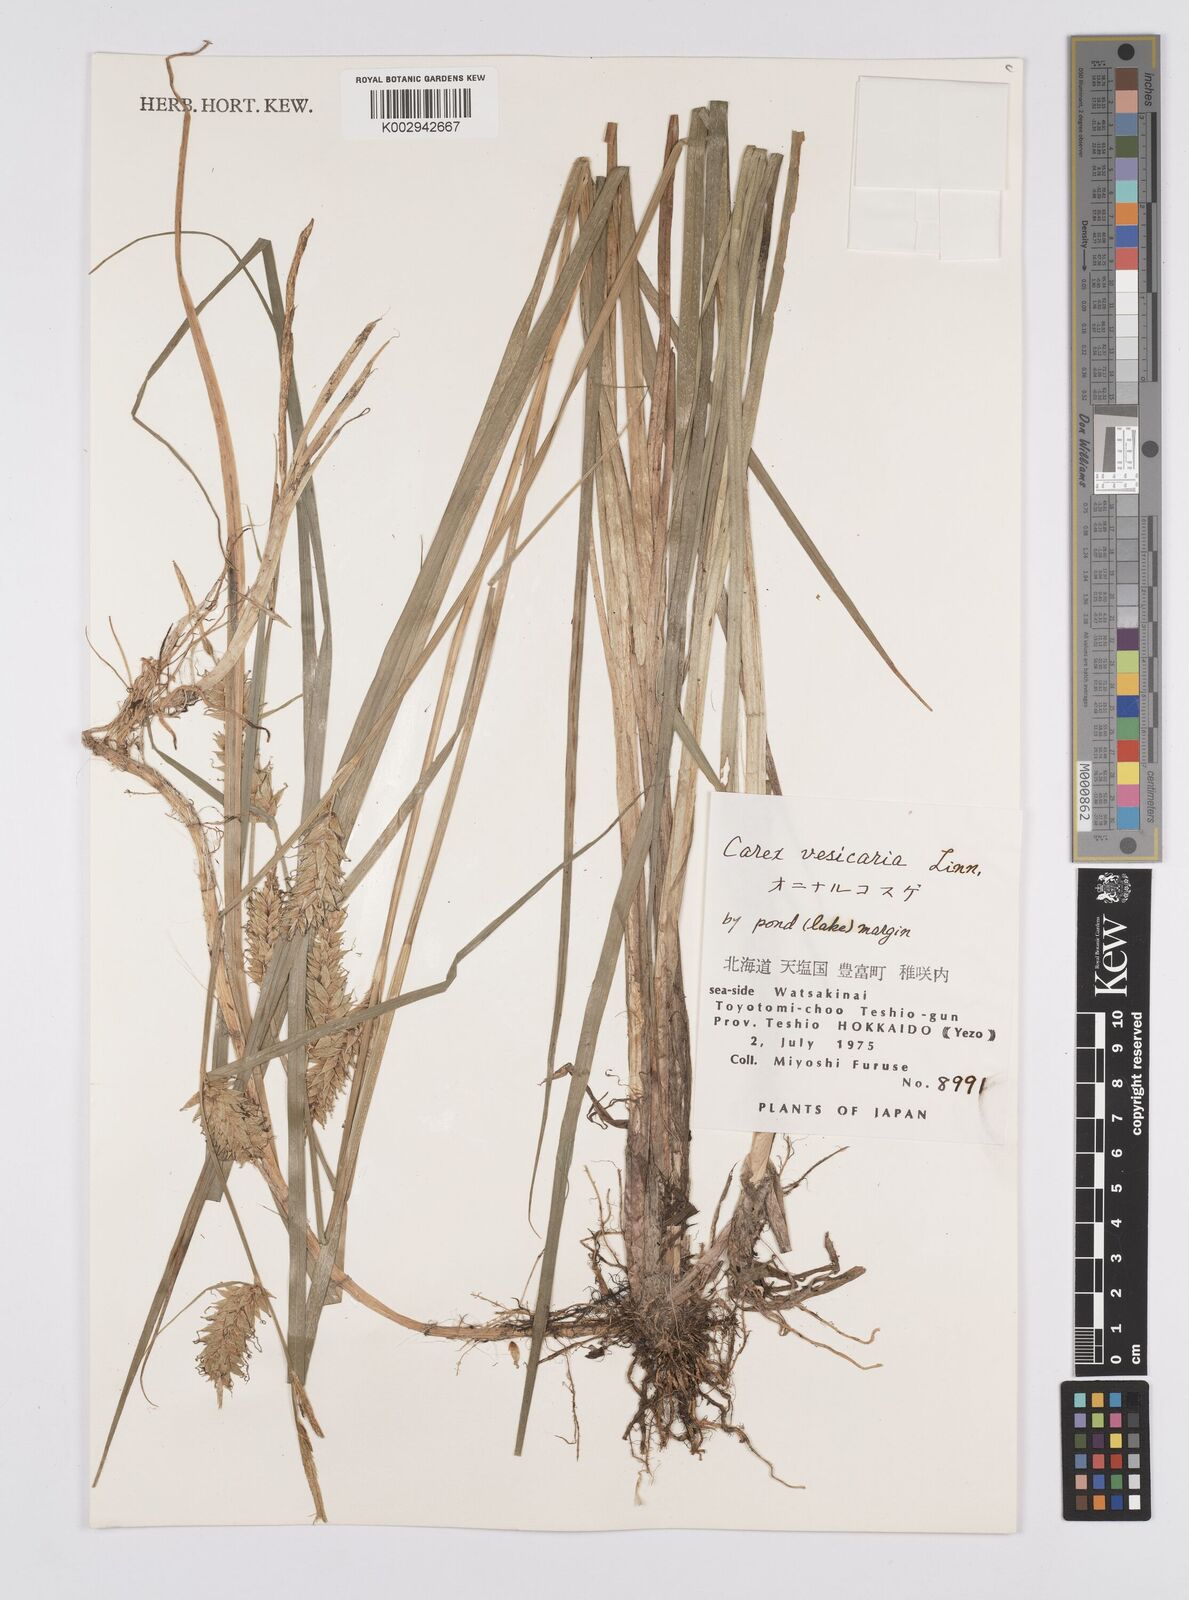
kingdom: Plantae
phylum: Tracheophyta
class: Liliopsida
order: Poales
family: Cyperaceae
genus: Carex
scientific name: Carex vesicaria
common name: Bladder-sedge
